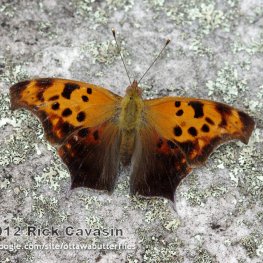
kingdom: Animalia
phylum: Arthropoda
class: Insecta
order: Lepidoptera
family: Nymphalidae
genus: Polygonia
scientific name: Polygonia interrogationis
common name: Question Mark
